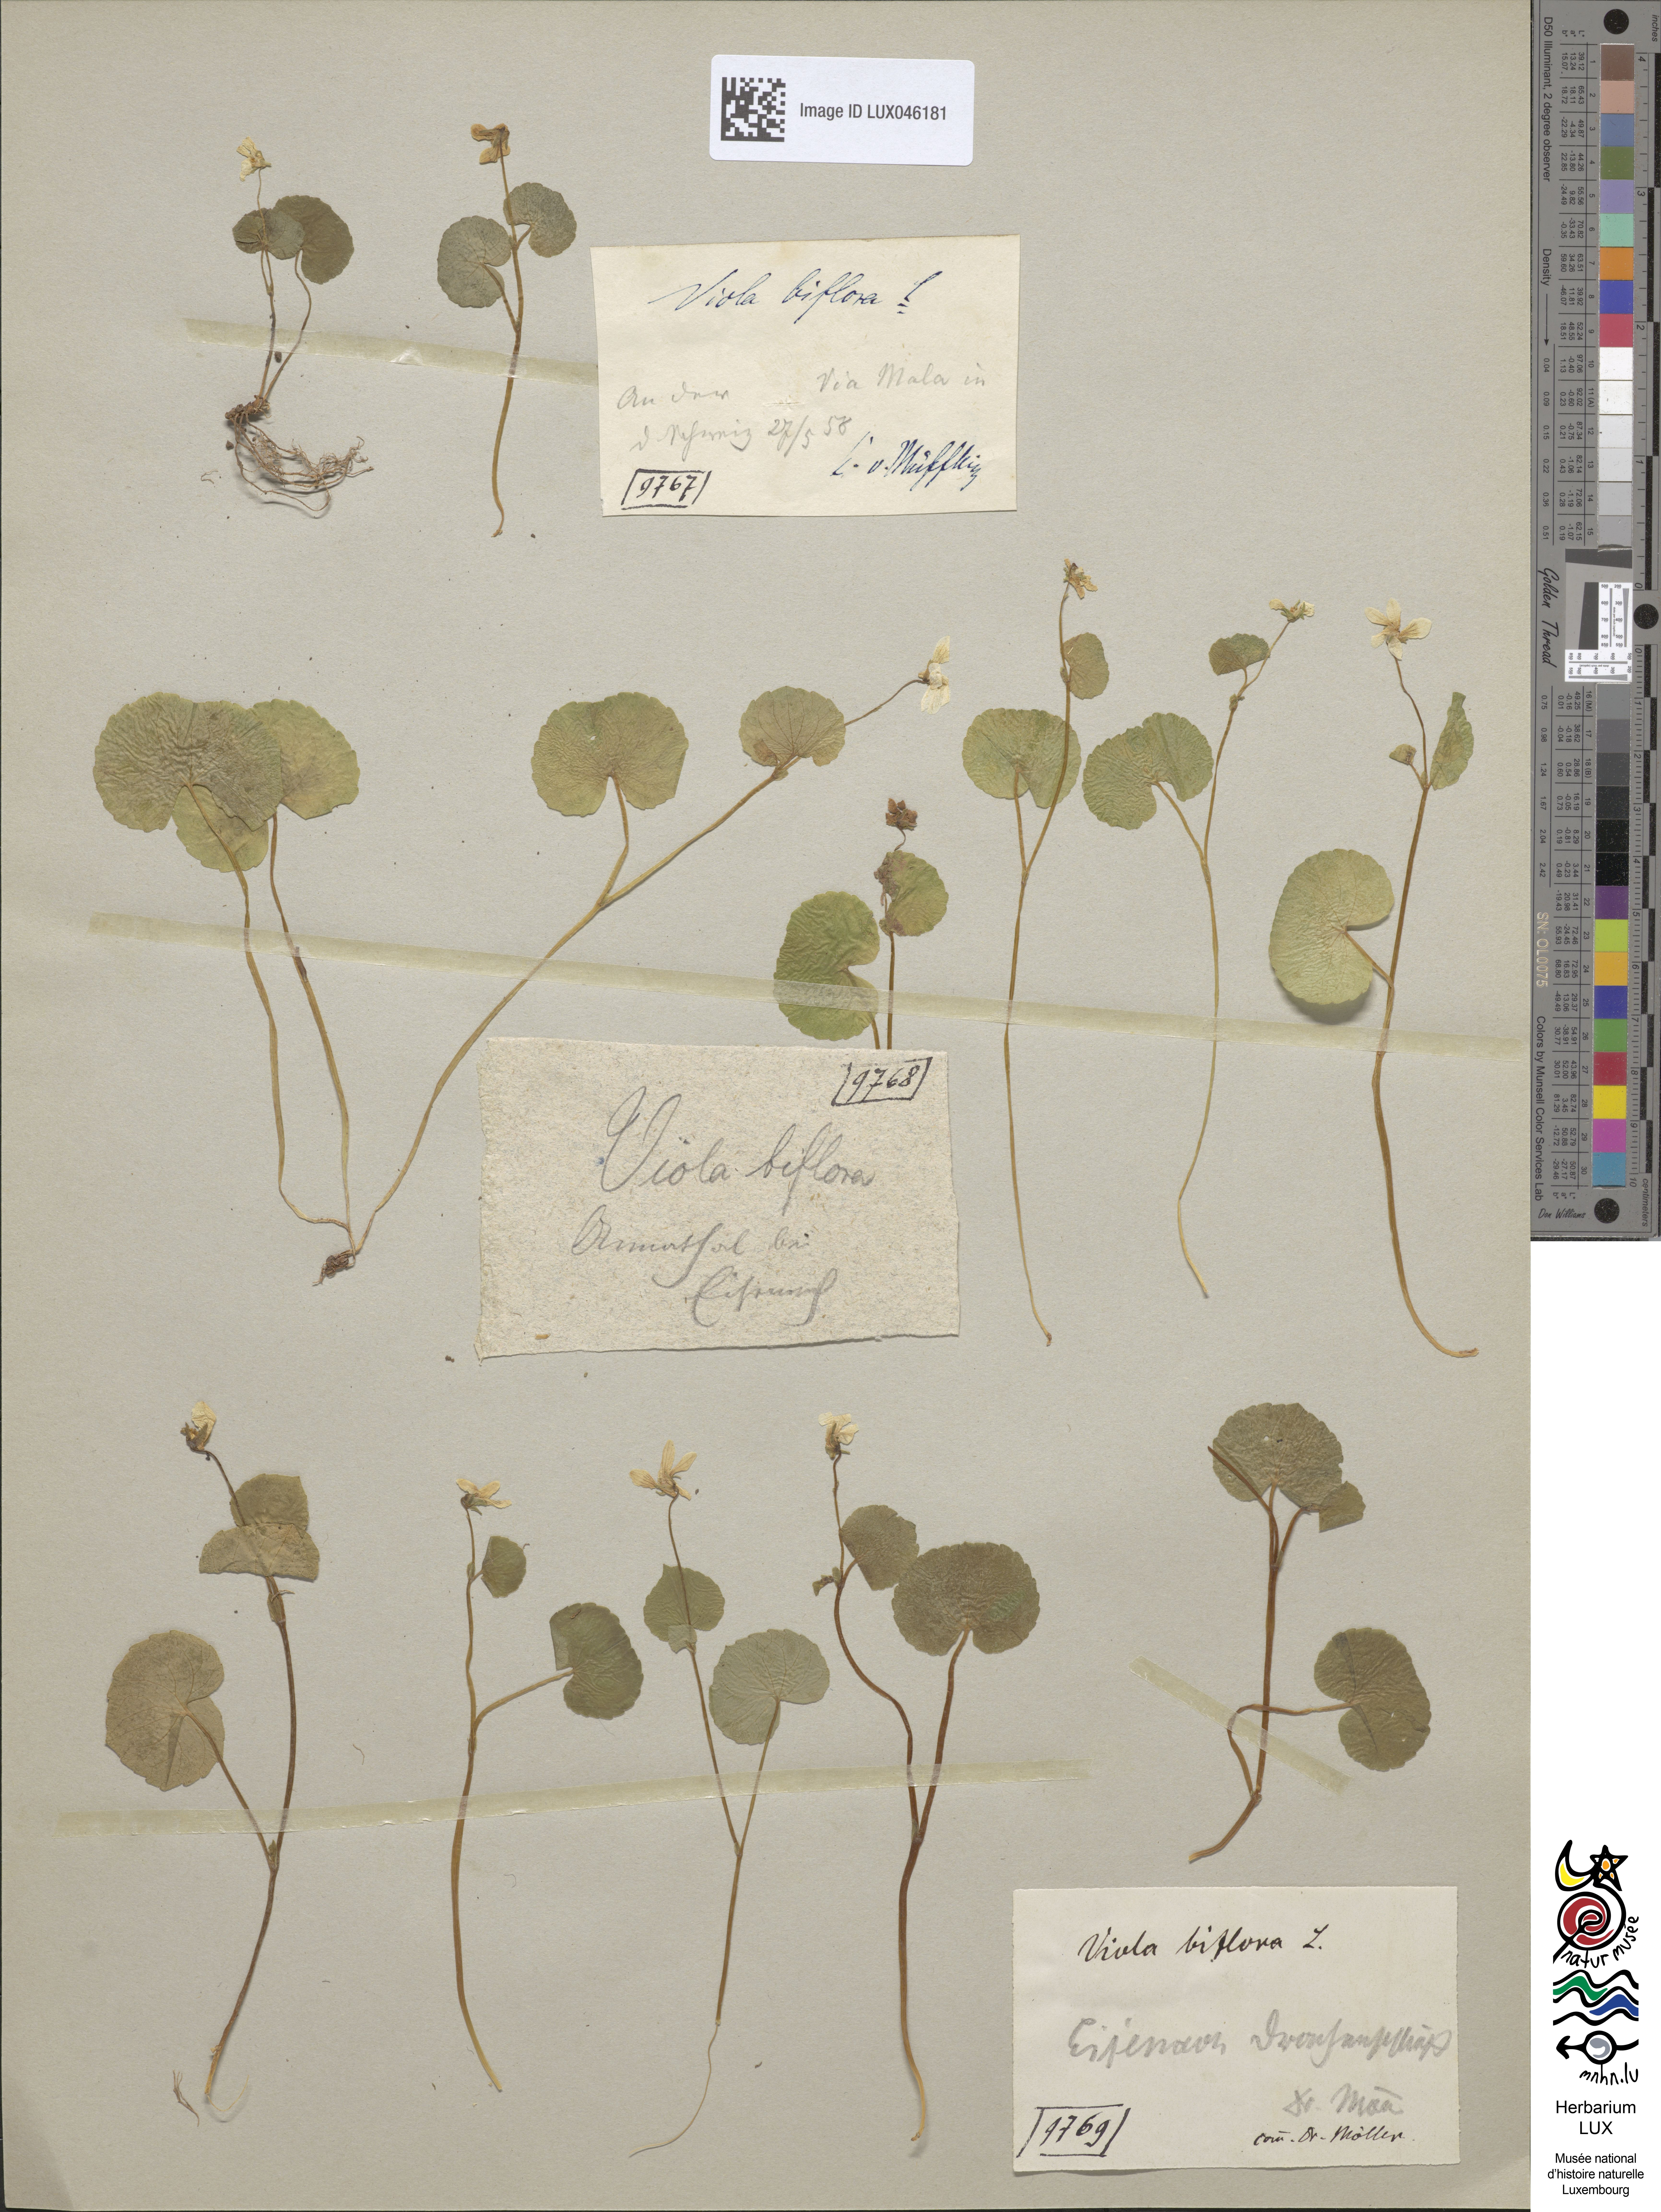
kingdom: Plantae
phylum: Tracheophyta
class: Magnoliopsida
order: Malpighiales
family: Violaceae
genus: Viola
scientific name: Viola biflora
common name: Alpine yellow violet
